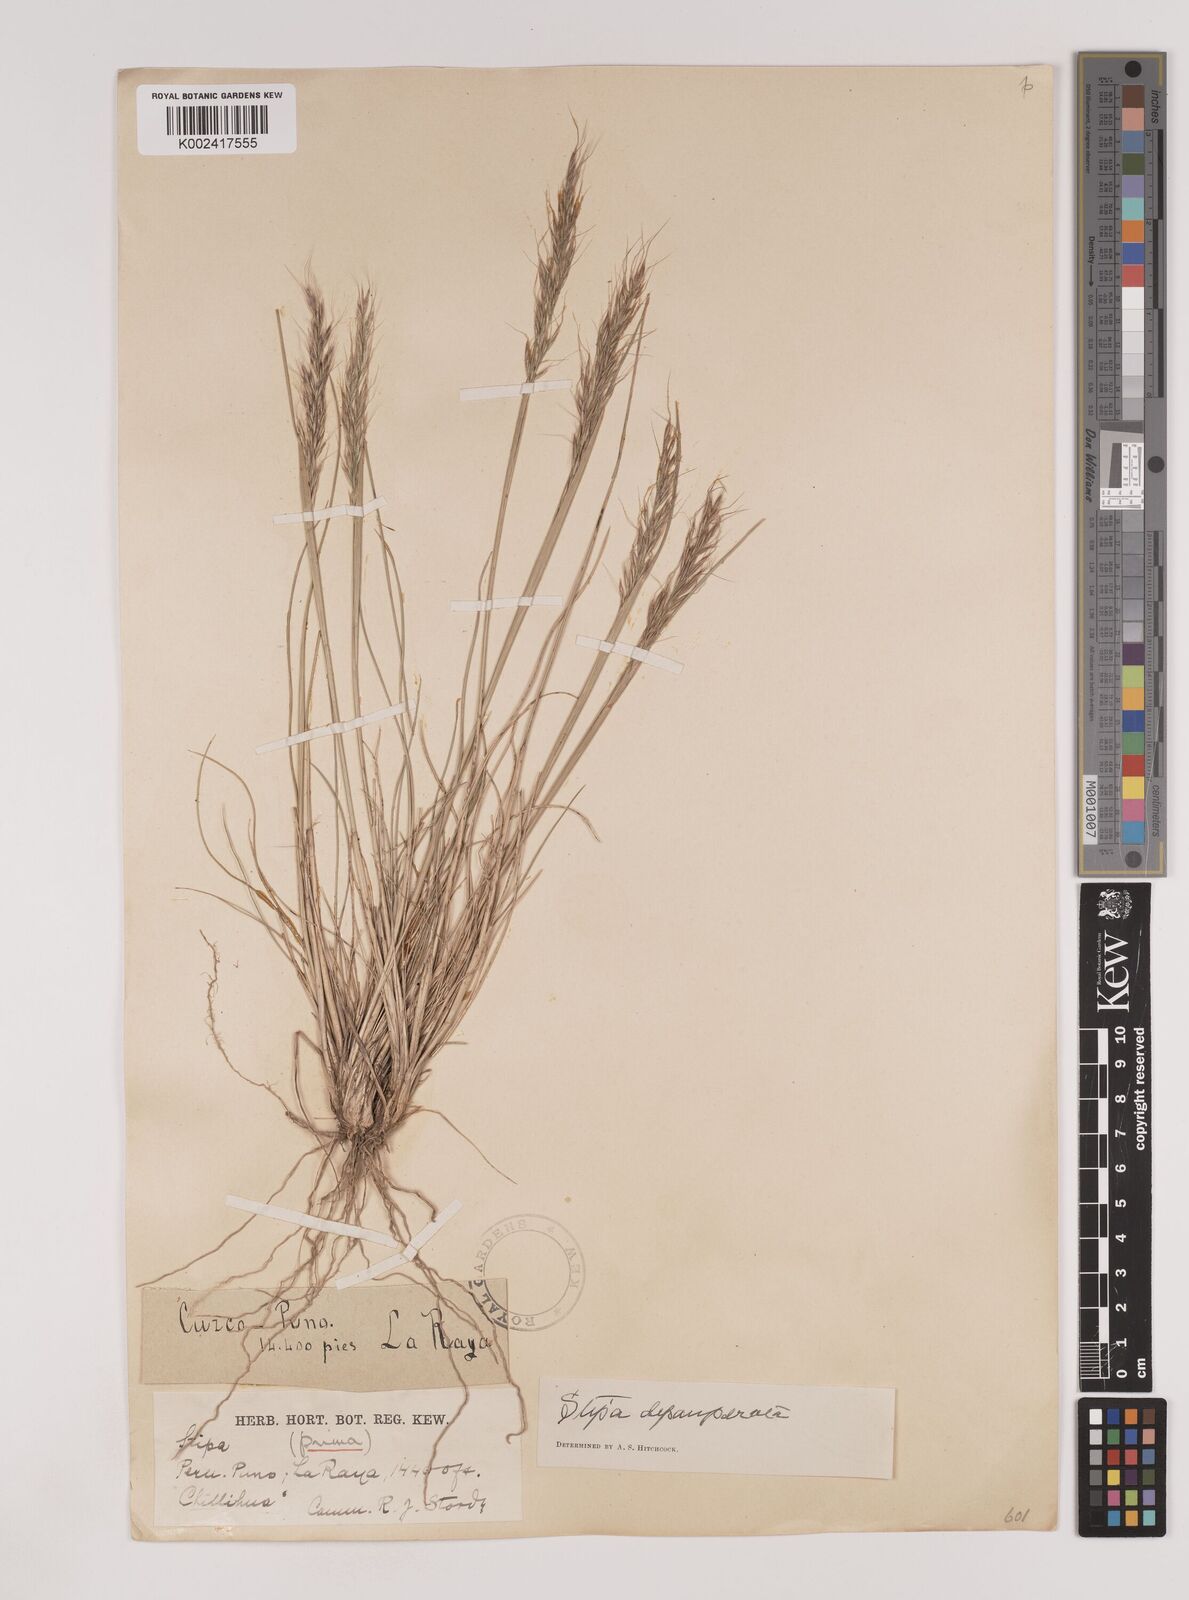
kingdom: Plantae
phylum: Tracheophyta
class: Liliopsida
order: Poales
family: Poaceae
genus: Nassella
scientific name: Nassella rupestris
